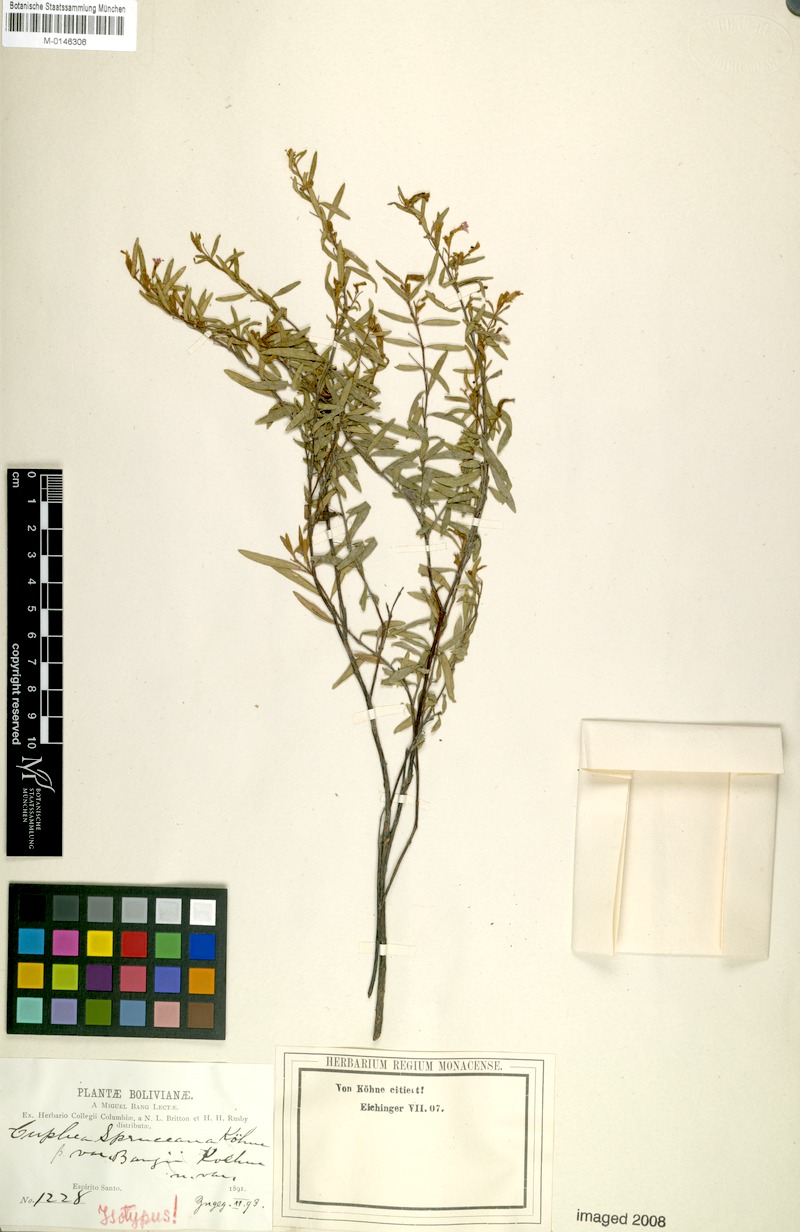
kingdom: Plantae
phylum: Tracheophyta
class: Magnoliopsida
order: Myrtales
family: Lythraceae
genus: Cuphea
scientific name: Cuphea spruceana
